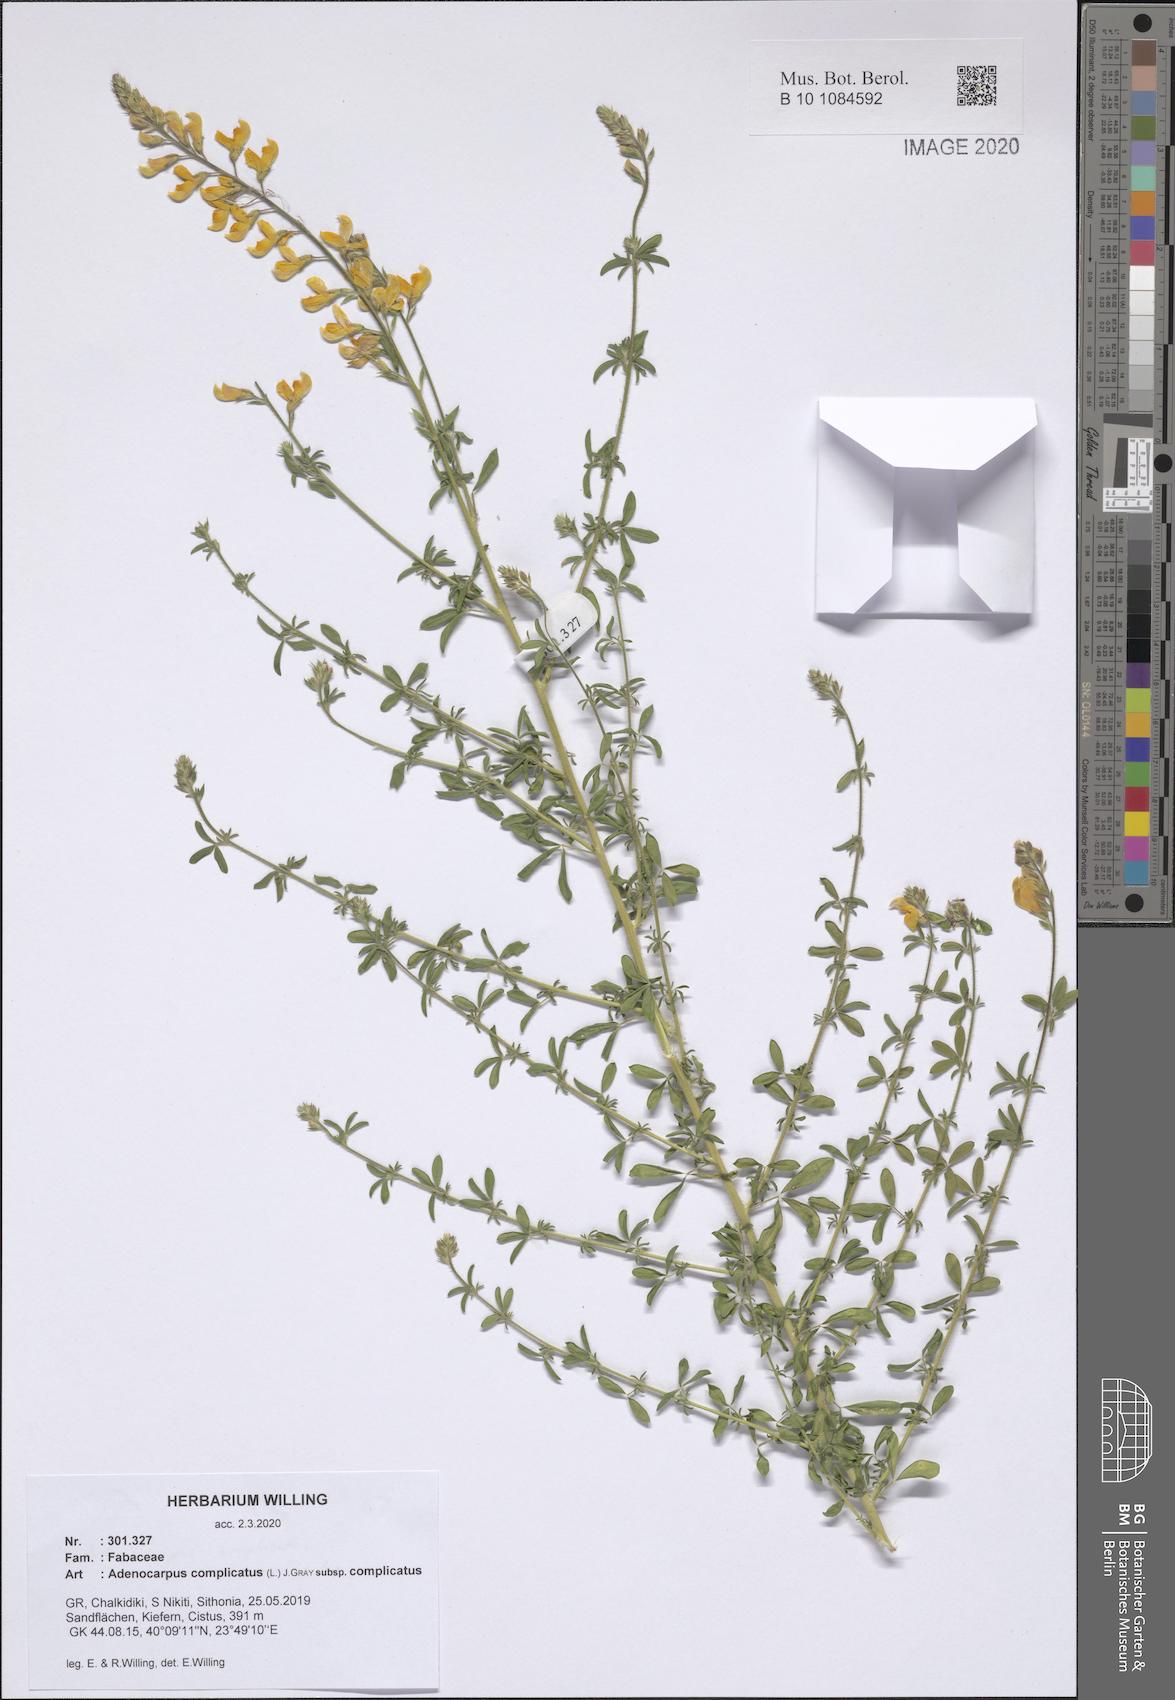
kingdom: Plantae
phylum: Tracheophyta
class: Magnoliopsida
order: Fabales
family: Fabaceae
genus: Adenocarpus
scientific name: Adenocarpus complicatus
